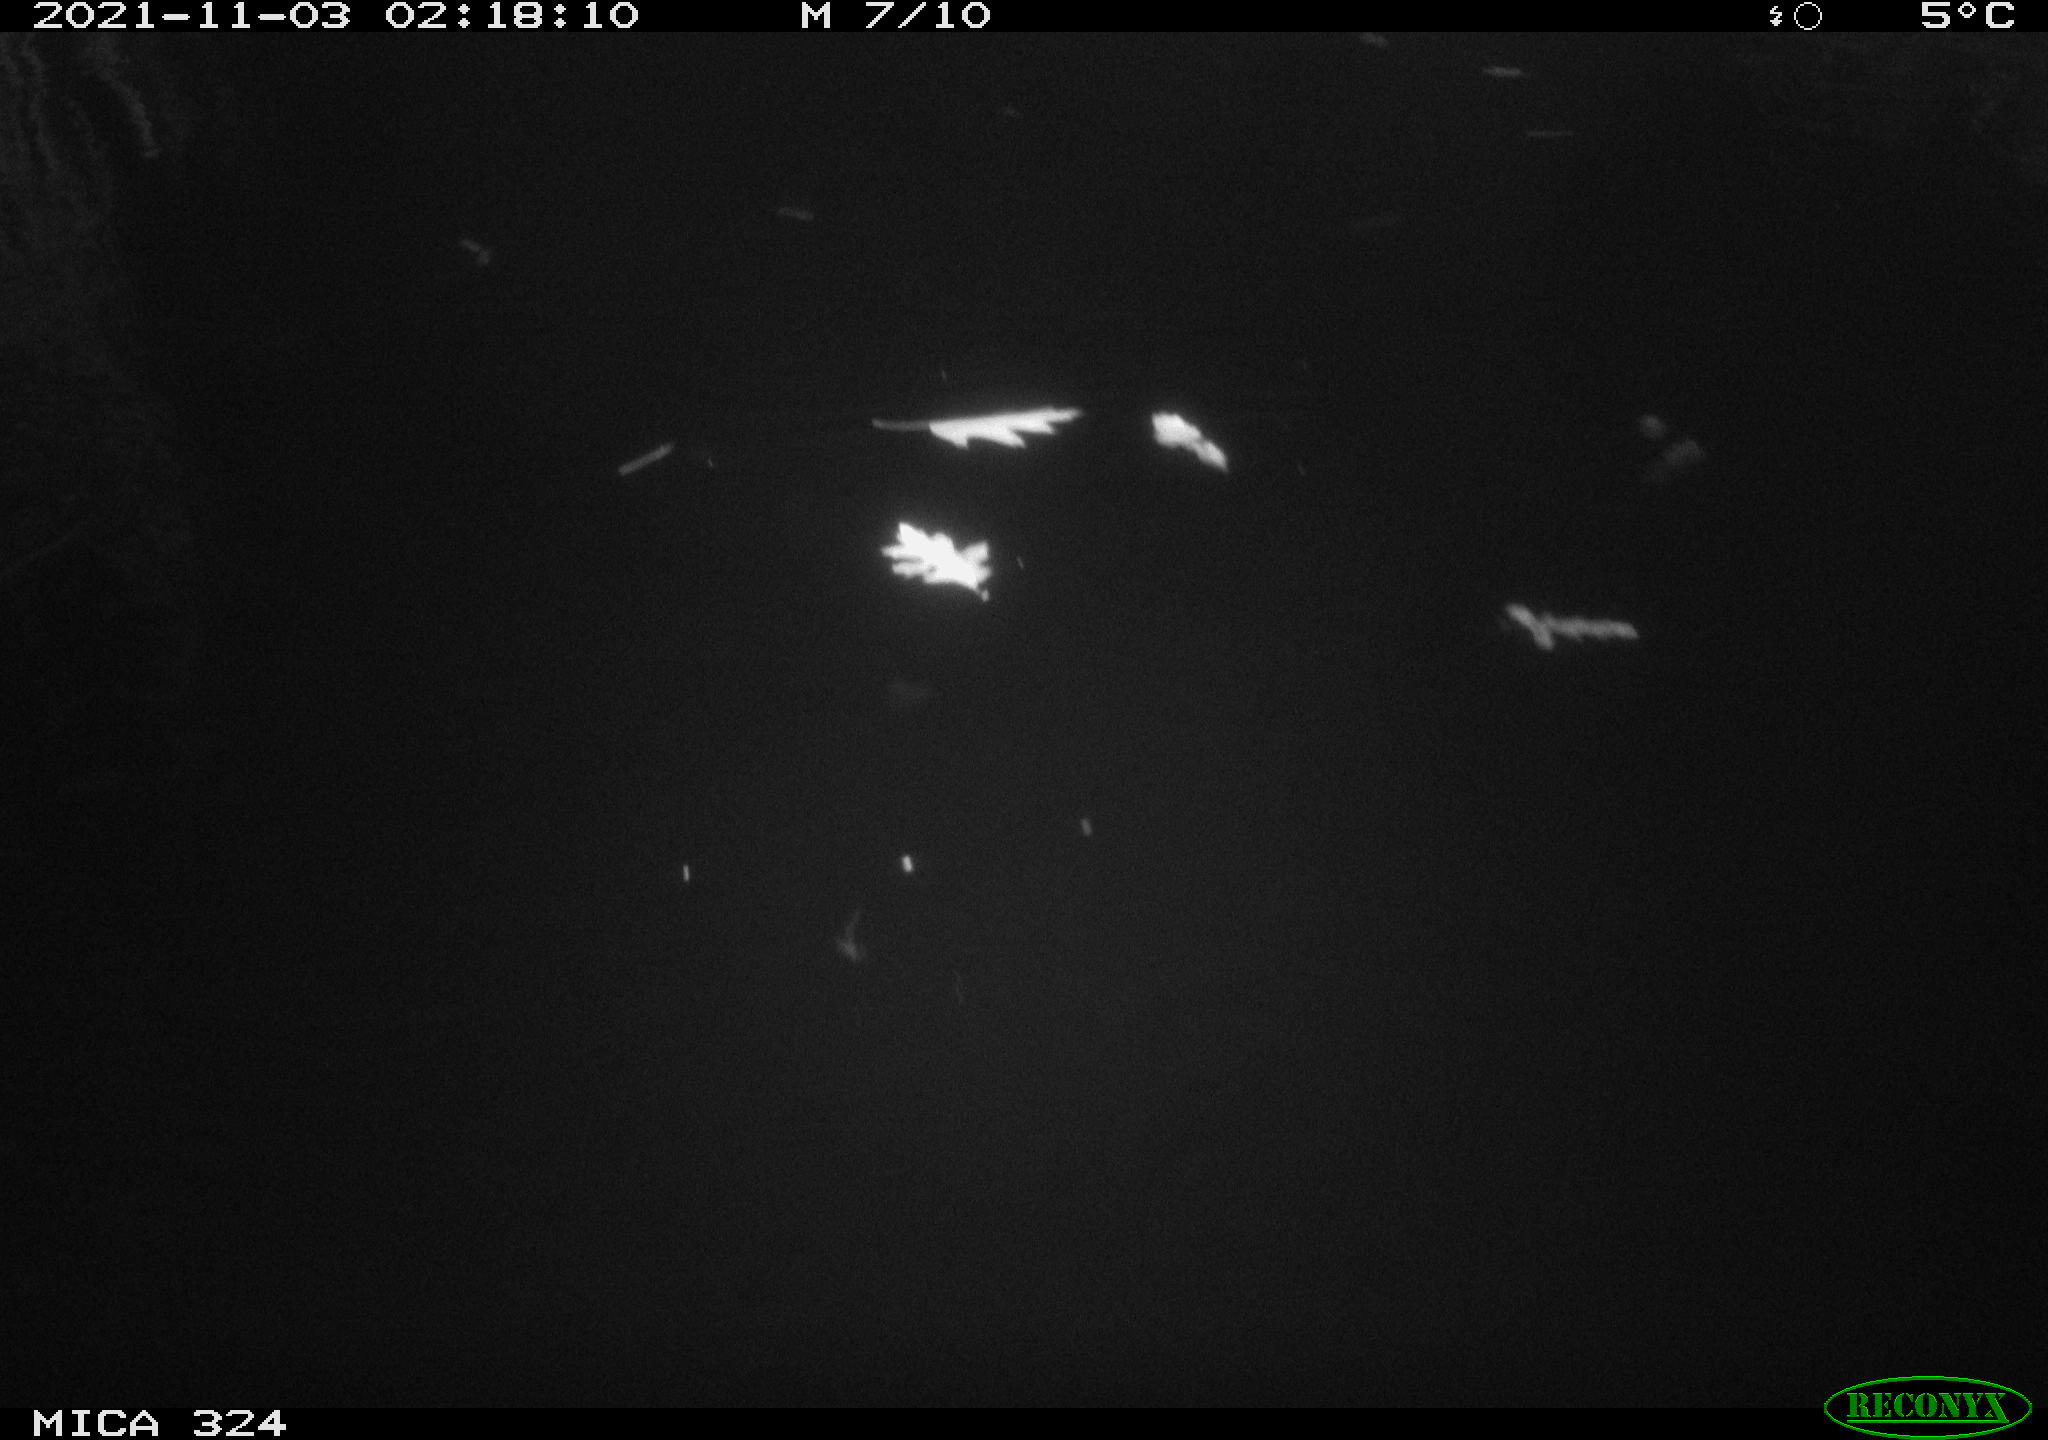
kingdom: Animalia
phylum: Chordata
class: Mammalia
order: Rodentia
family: Cricetidae
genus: Ondatra
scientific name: Ondatra zibethicus
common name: Muskrat
